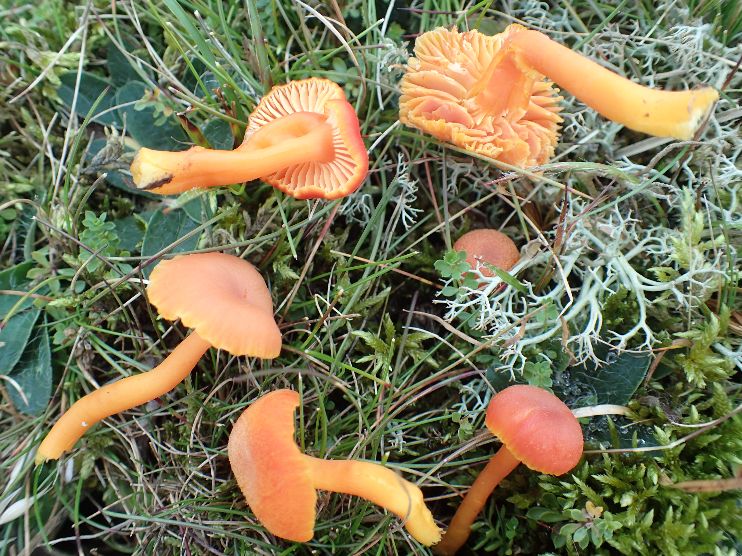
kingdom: Fungi
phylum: Basidiomycota
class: Agaricomycetes
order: Agaricales
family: Hygrophoraceae
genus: Hygrocybe
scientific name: Hygrocybe miniata
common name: mønje-vokshat
